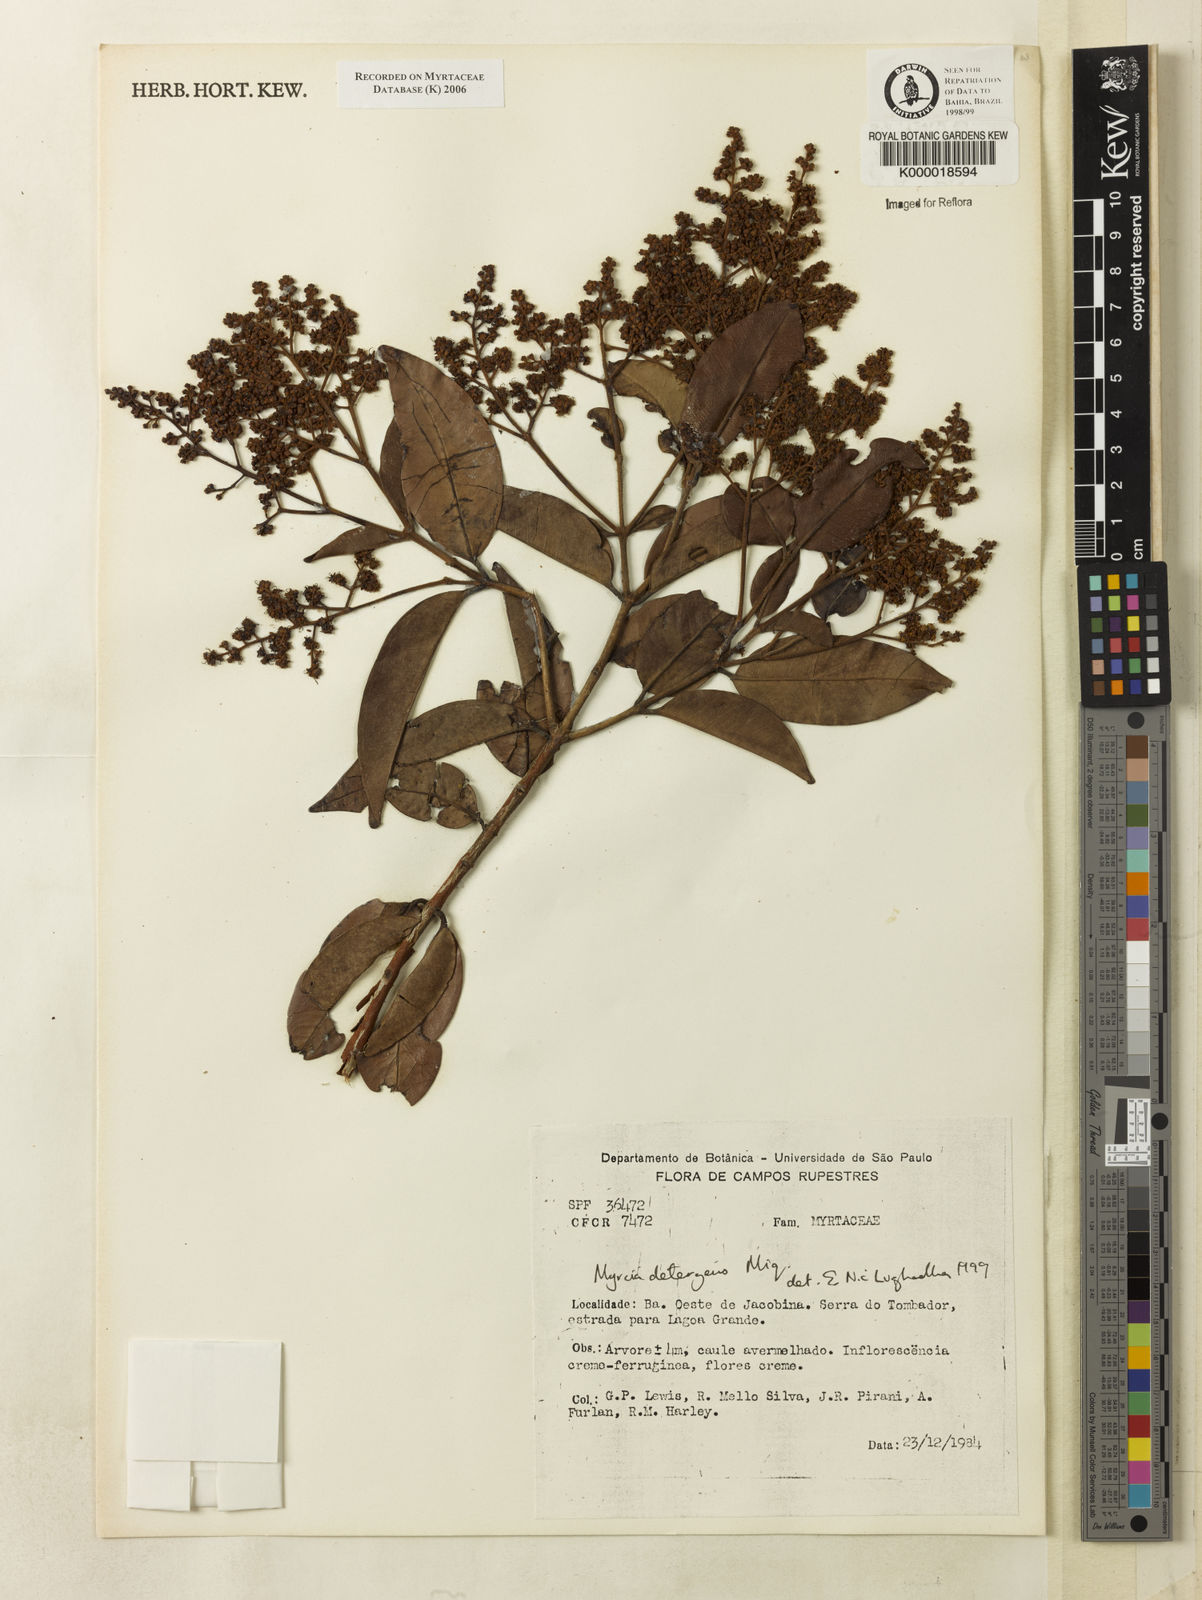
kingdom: Plantae
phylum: Tracheophyta
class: Magnoliopsida
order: Myrtales
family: Myrtaceae
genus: Myrcia
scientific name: Myrcia amazonica
